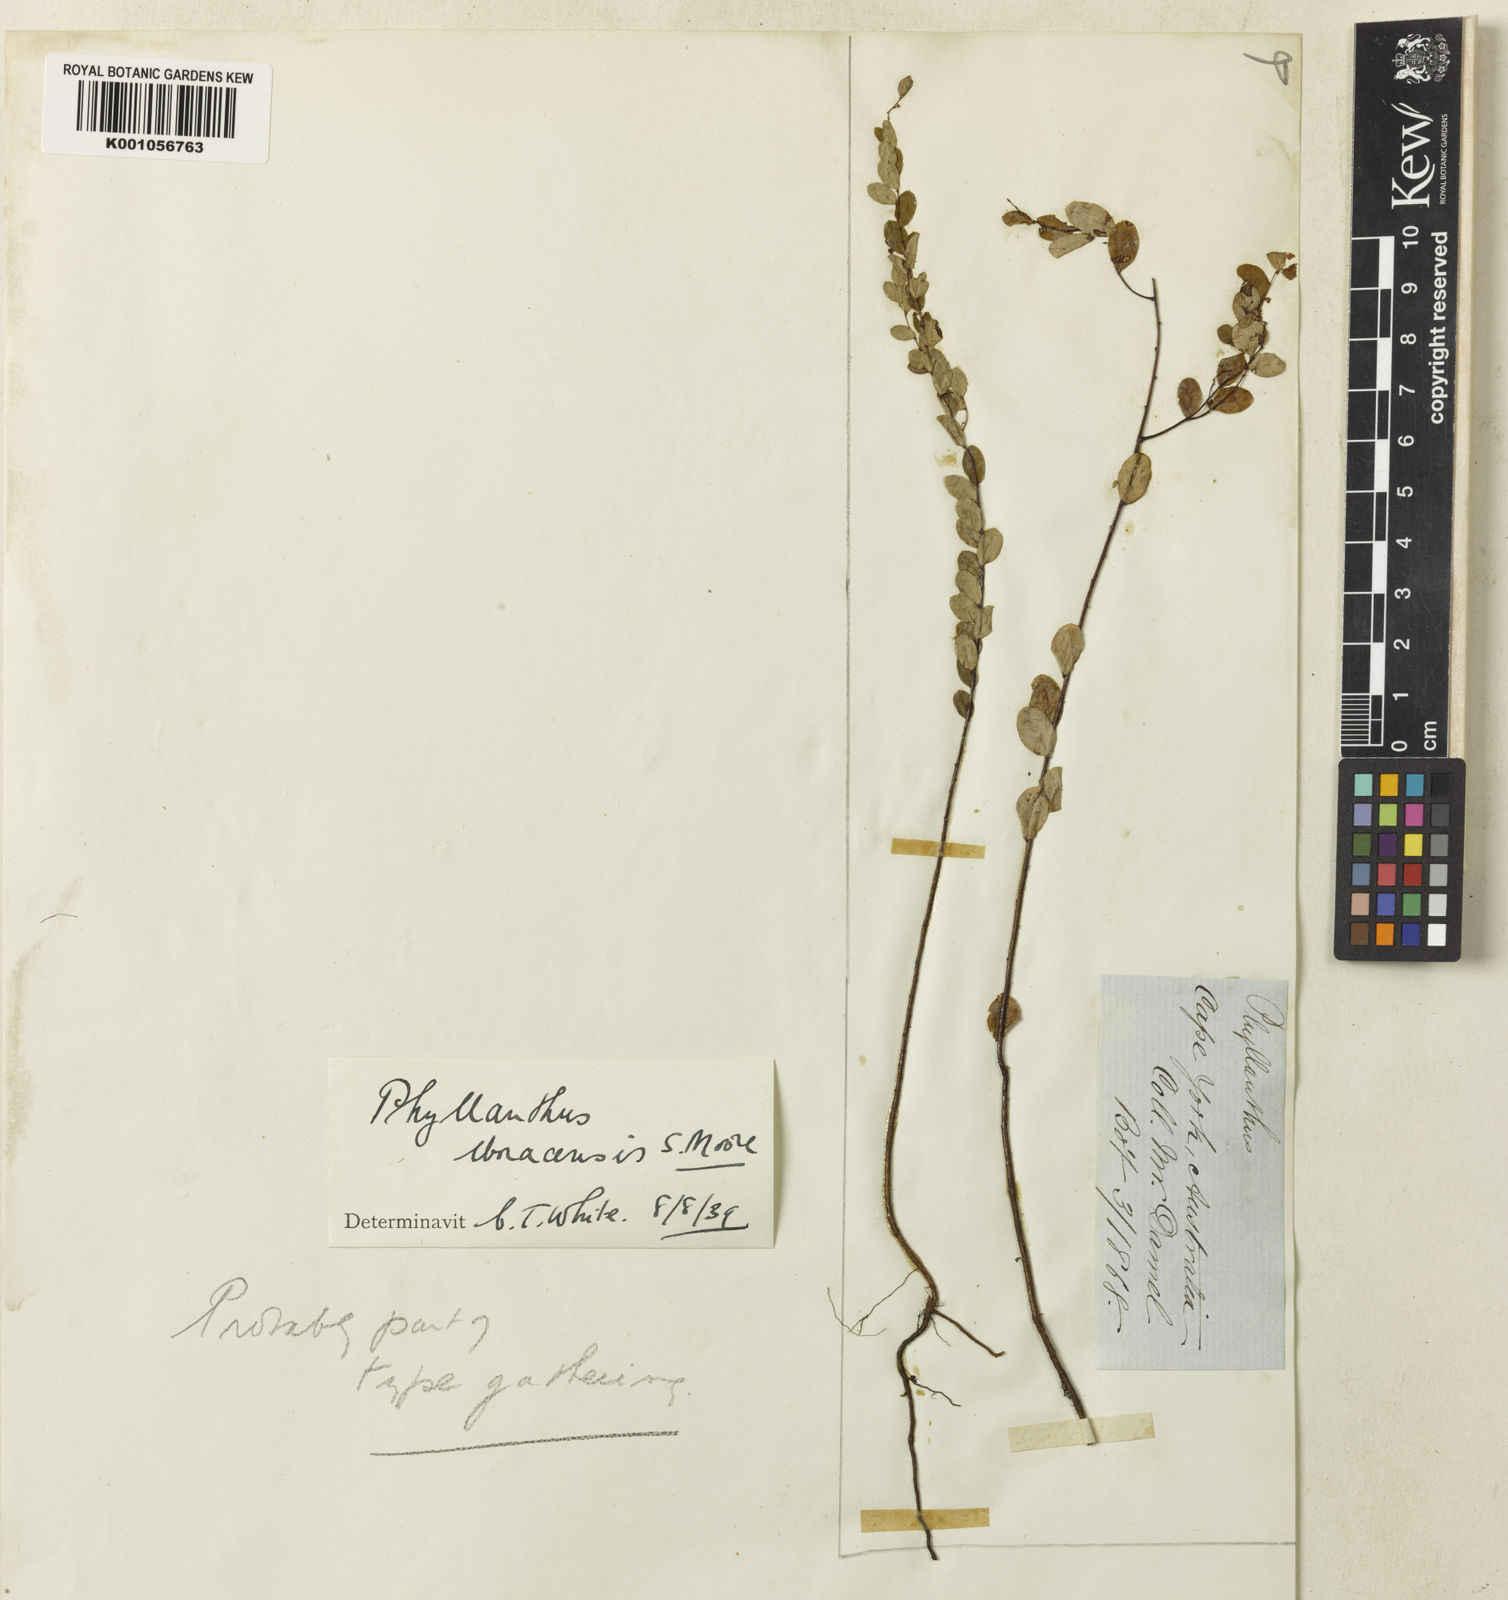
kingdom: Plantae
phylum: Tracheophyta
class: Magnoliopsida
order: Malpighiales
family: Phyllanthaceae
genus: Phyllanthus
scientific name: Phyllanthus virgatus
